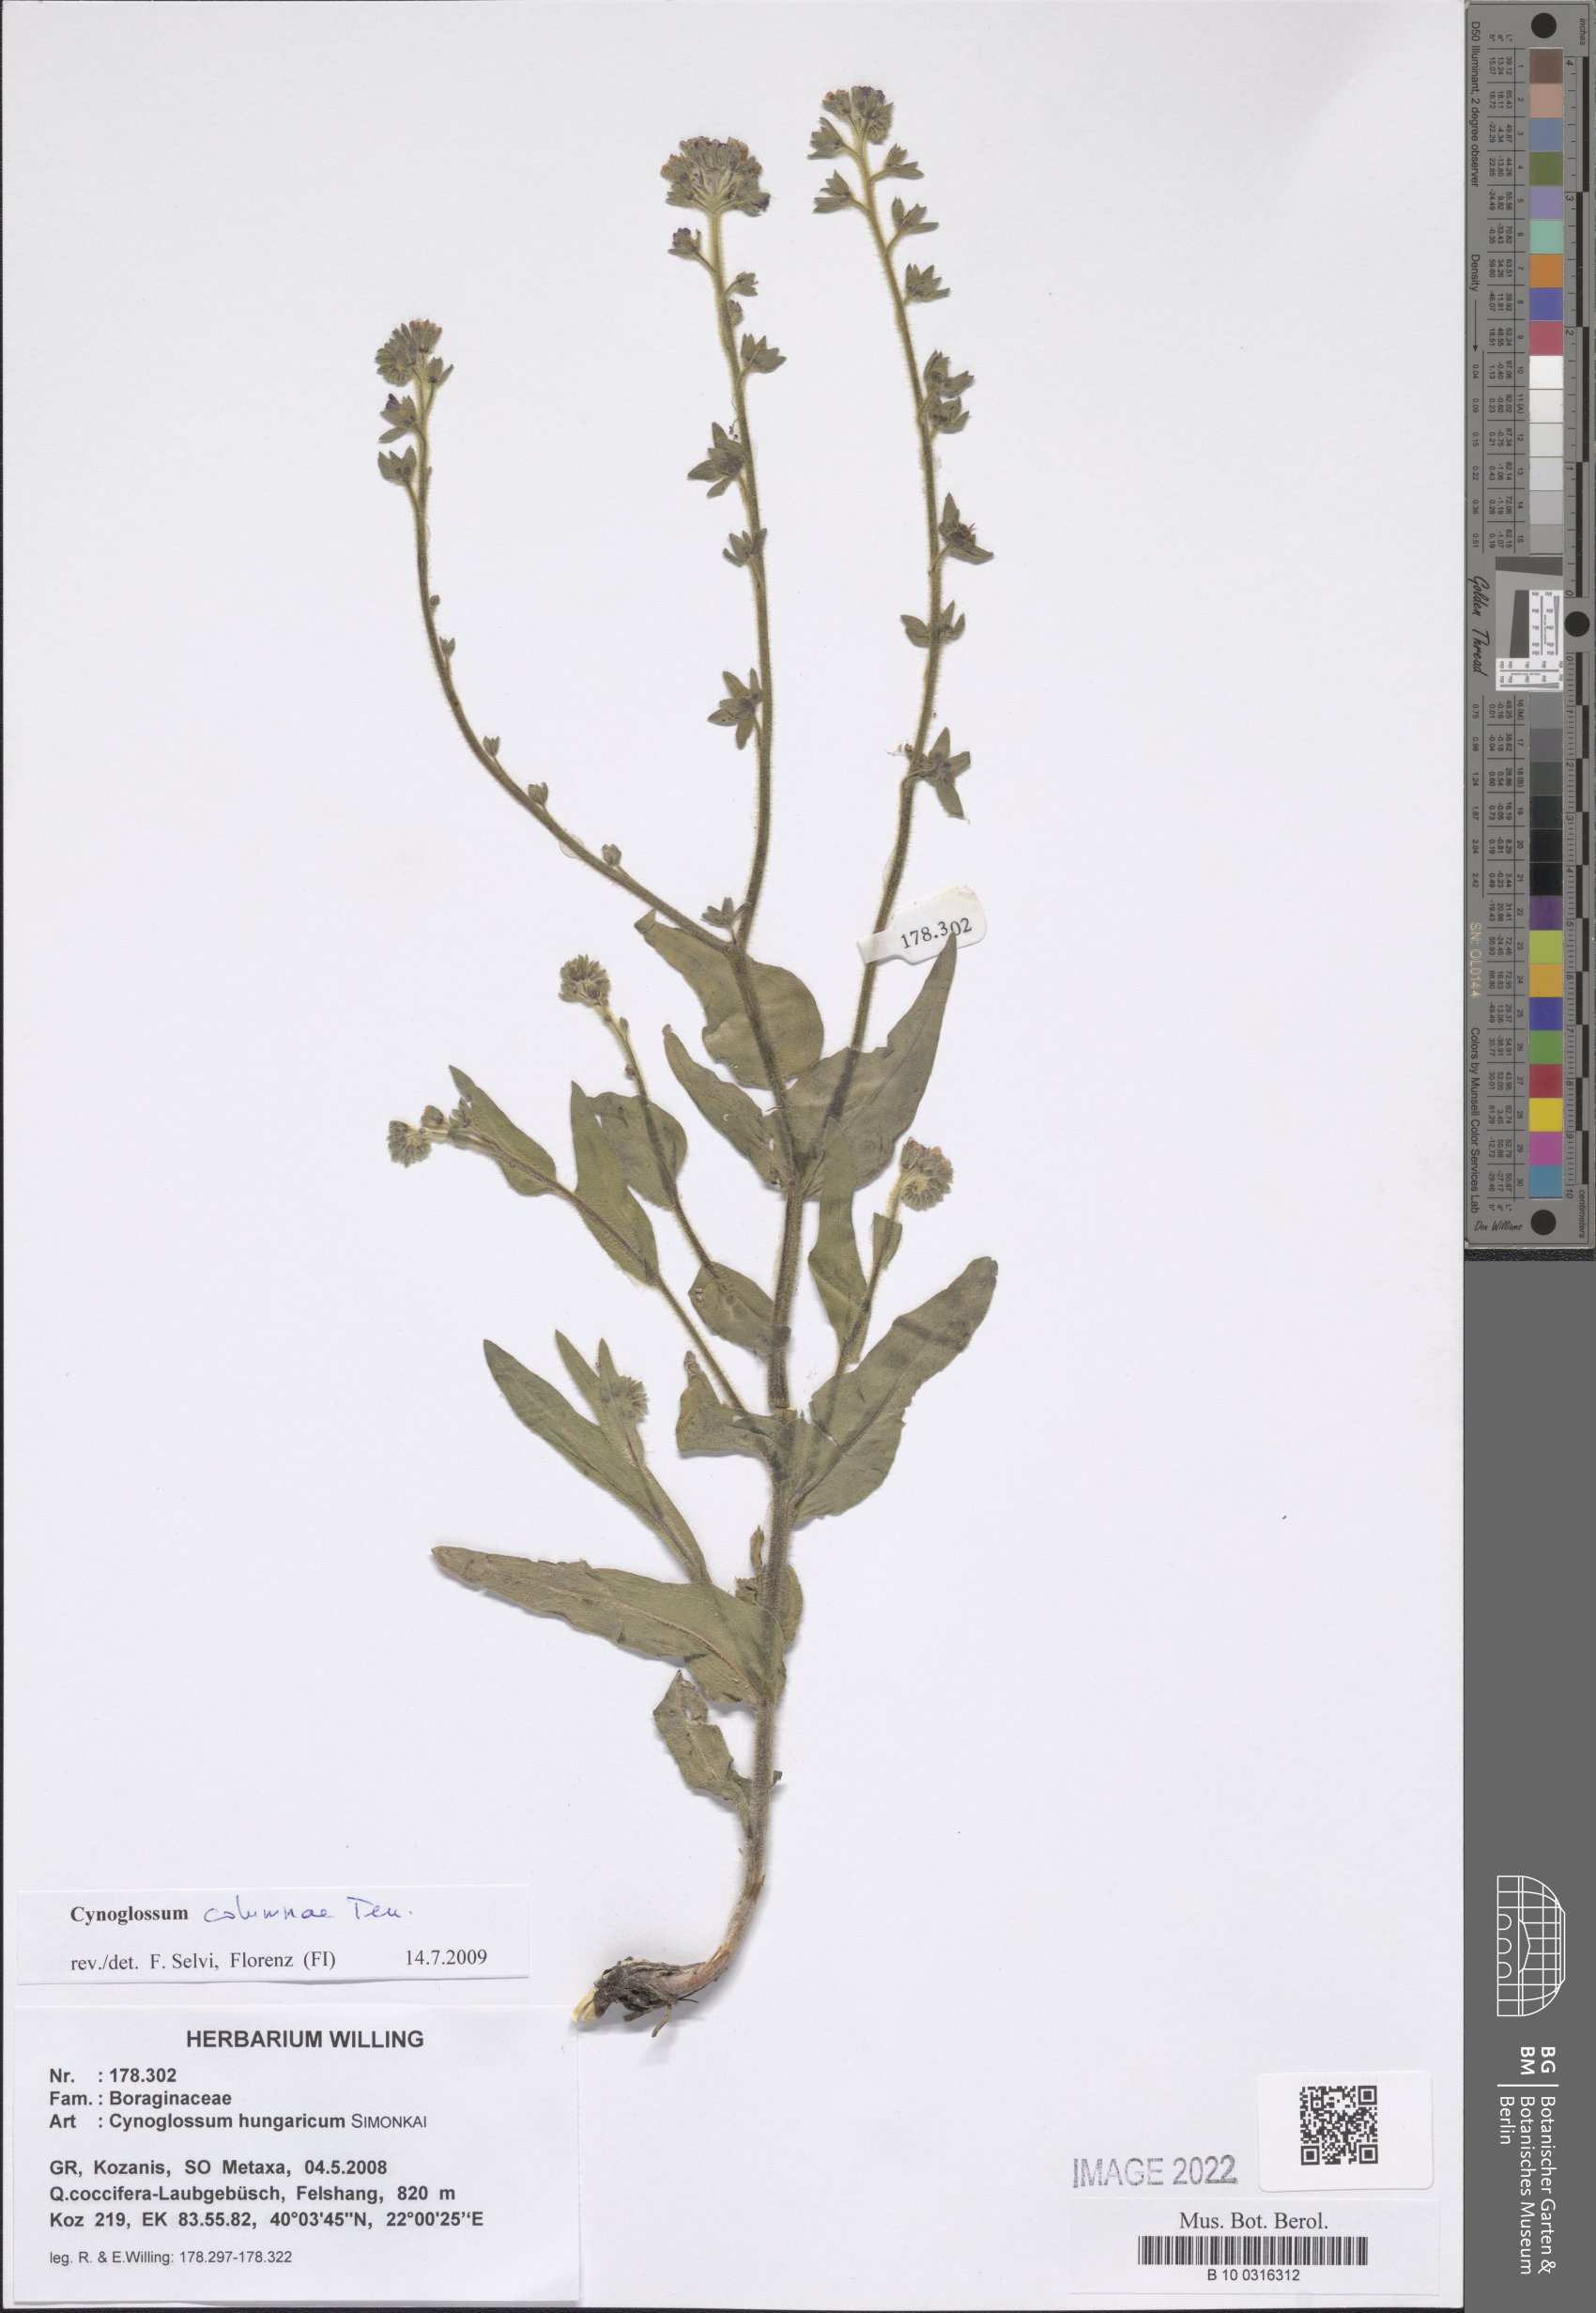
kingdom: Plantae
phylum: Tracheophyta
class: Magnoliopsida
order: Boraginales
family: Boraginaceae
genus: Rindera
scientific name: Rindera columnae
